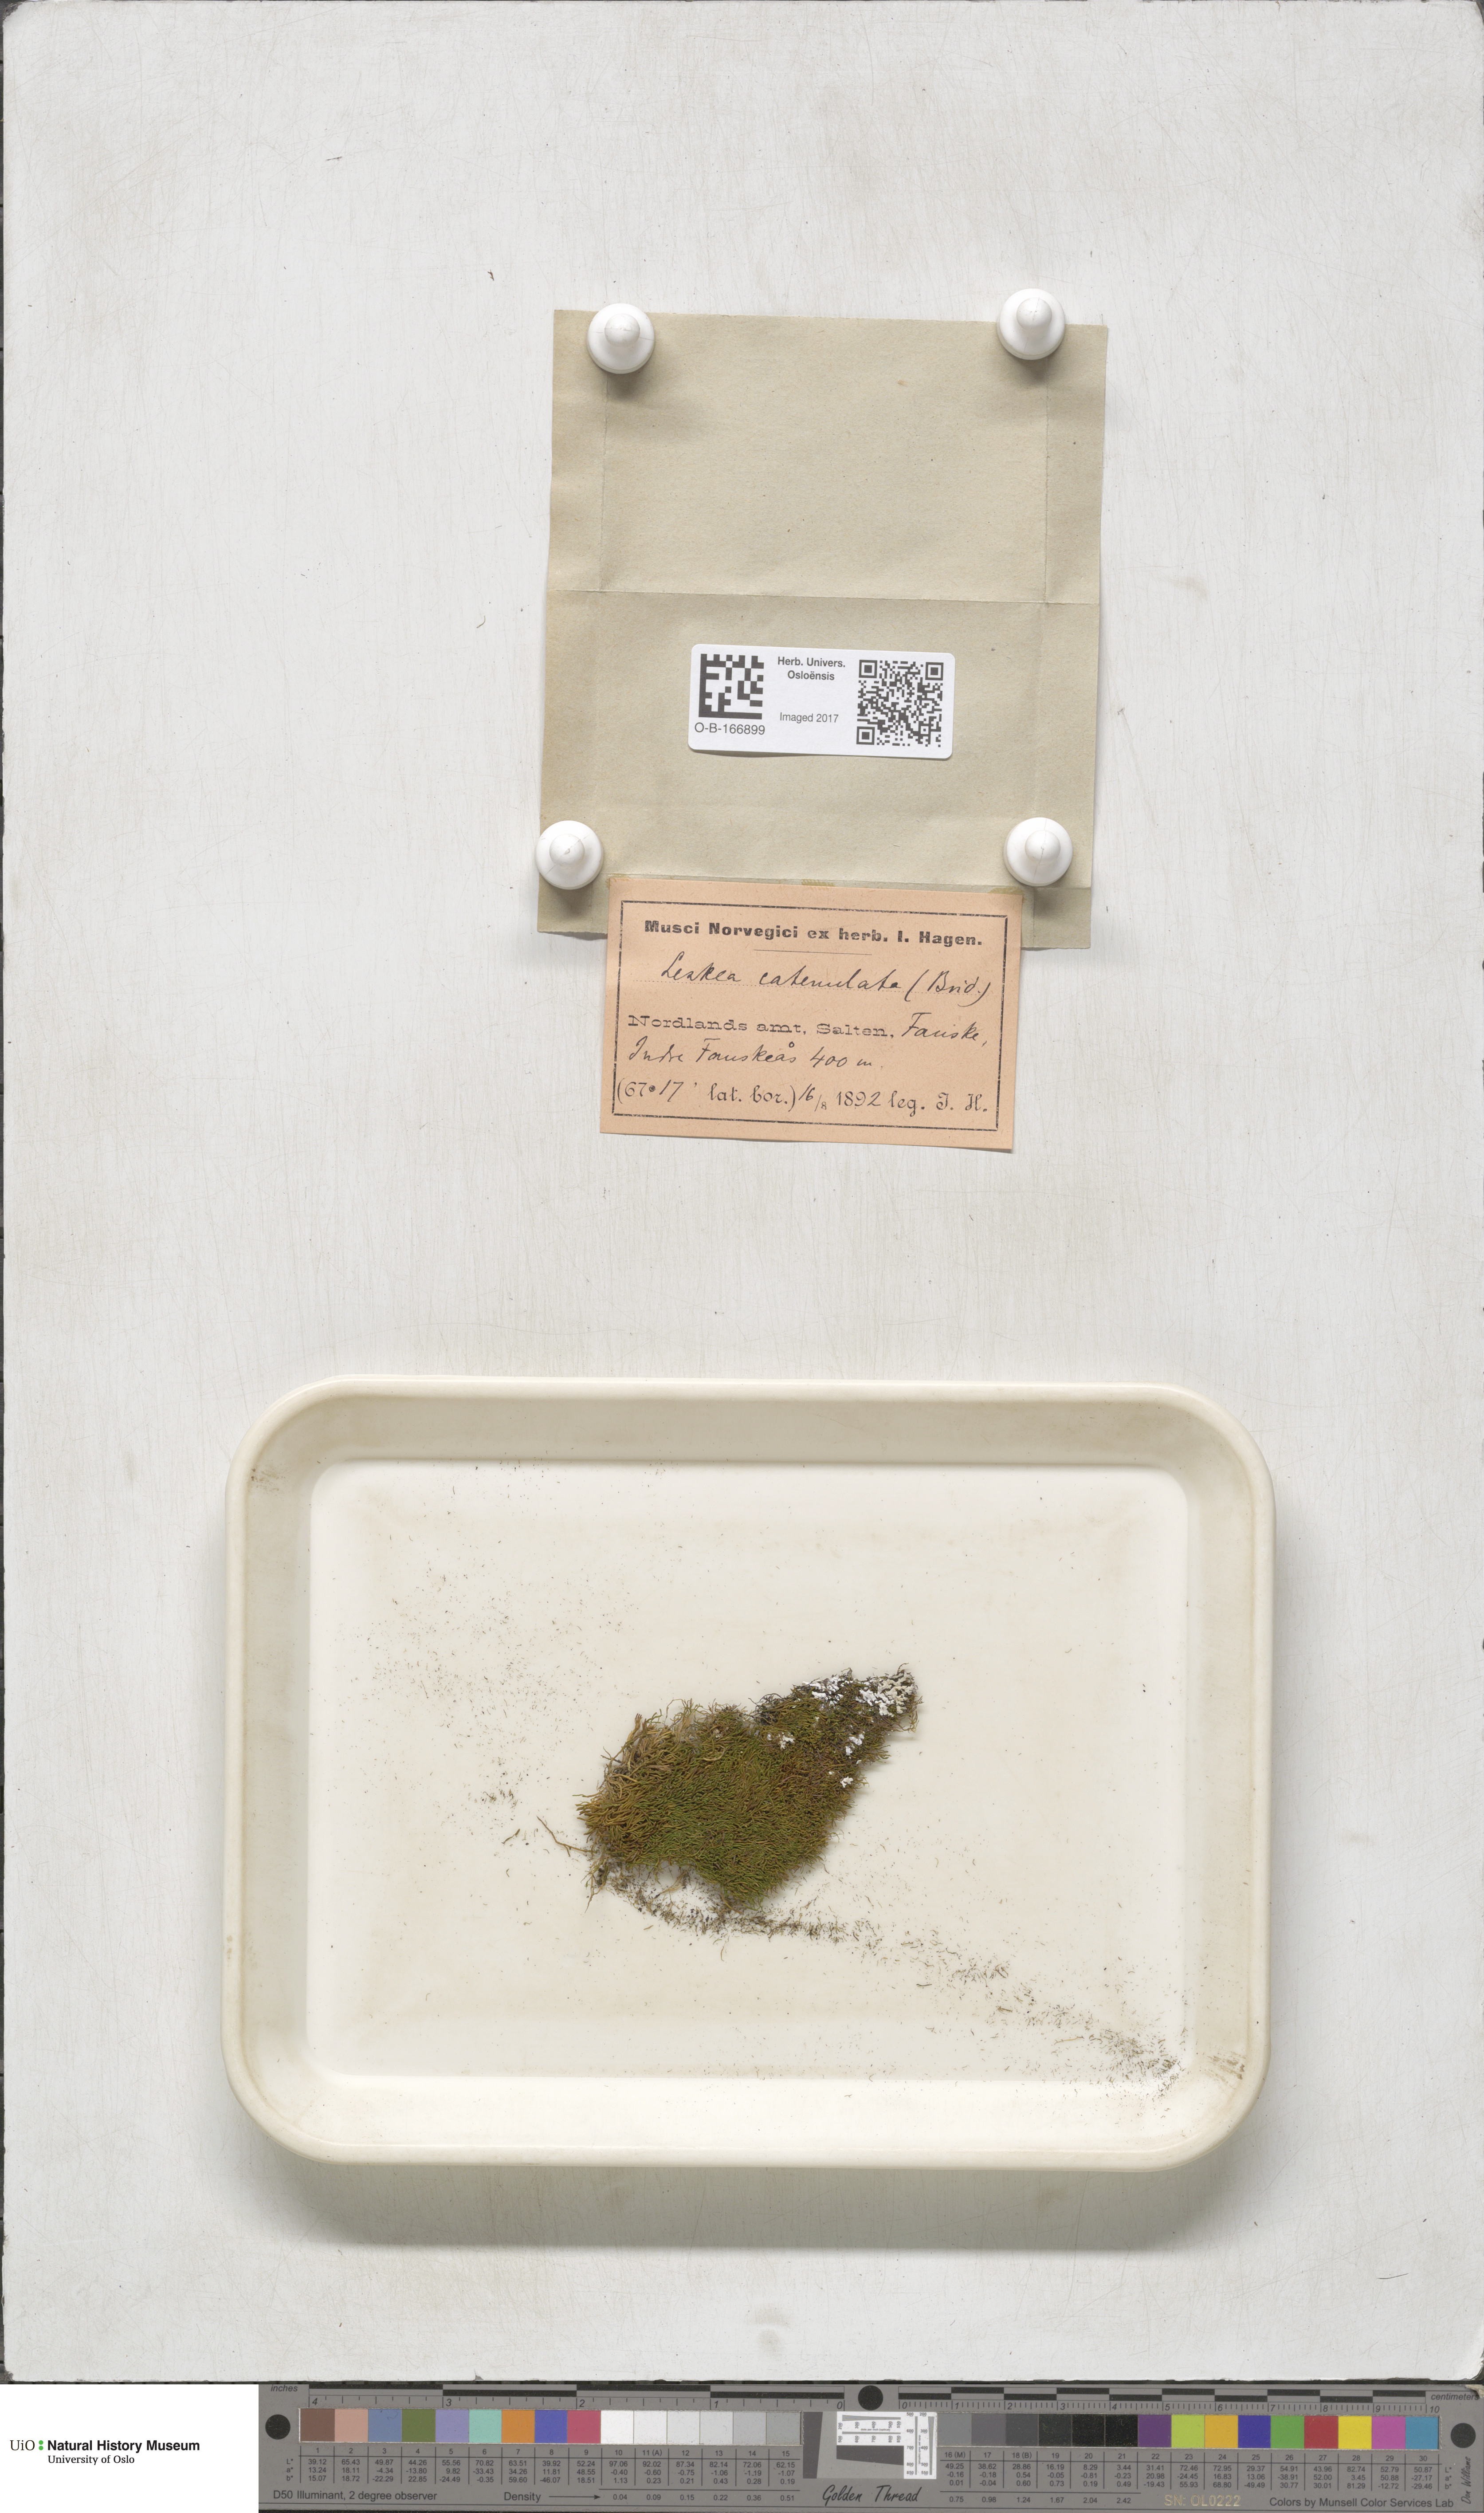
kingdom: Plantae
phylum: Bryophyta
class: Bryopsida
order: Hypnales
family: Pseudoleskeellaceae
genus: Pseudoleskeella
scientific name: Pseudoleskeella catenulata
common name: Chained leskea
